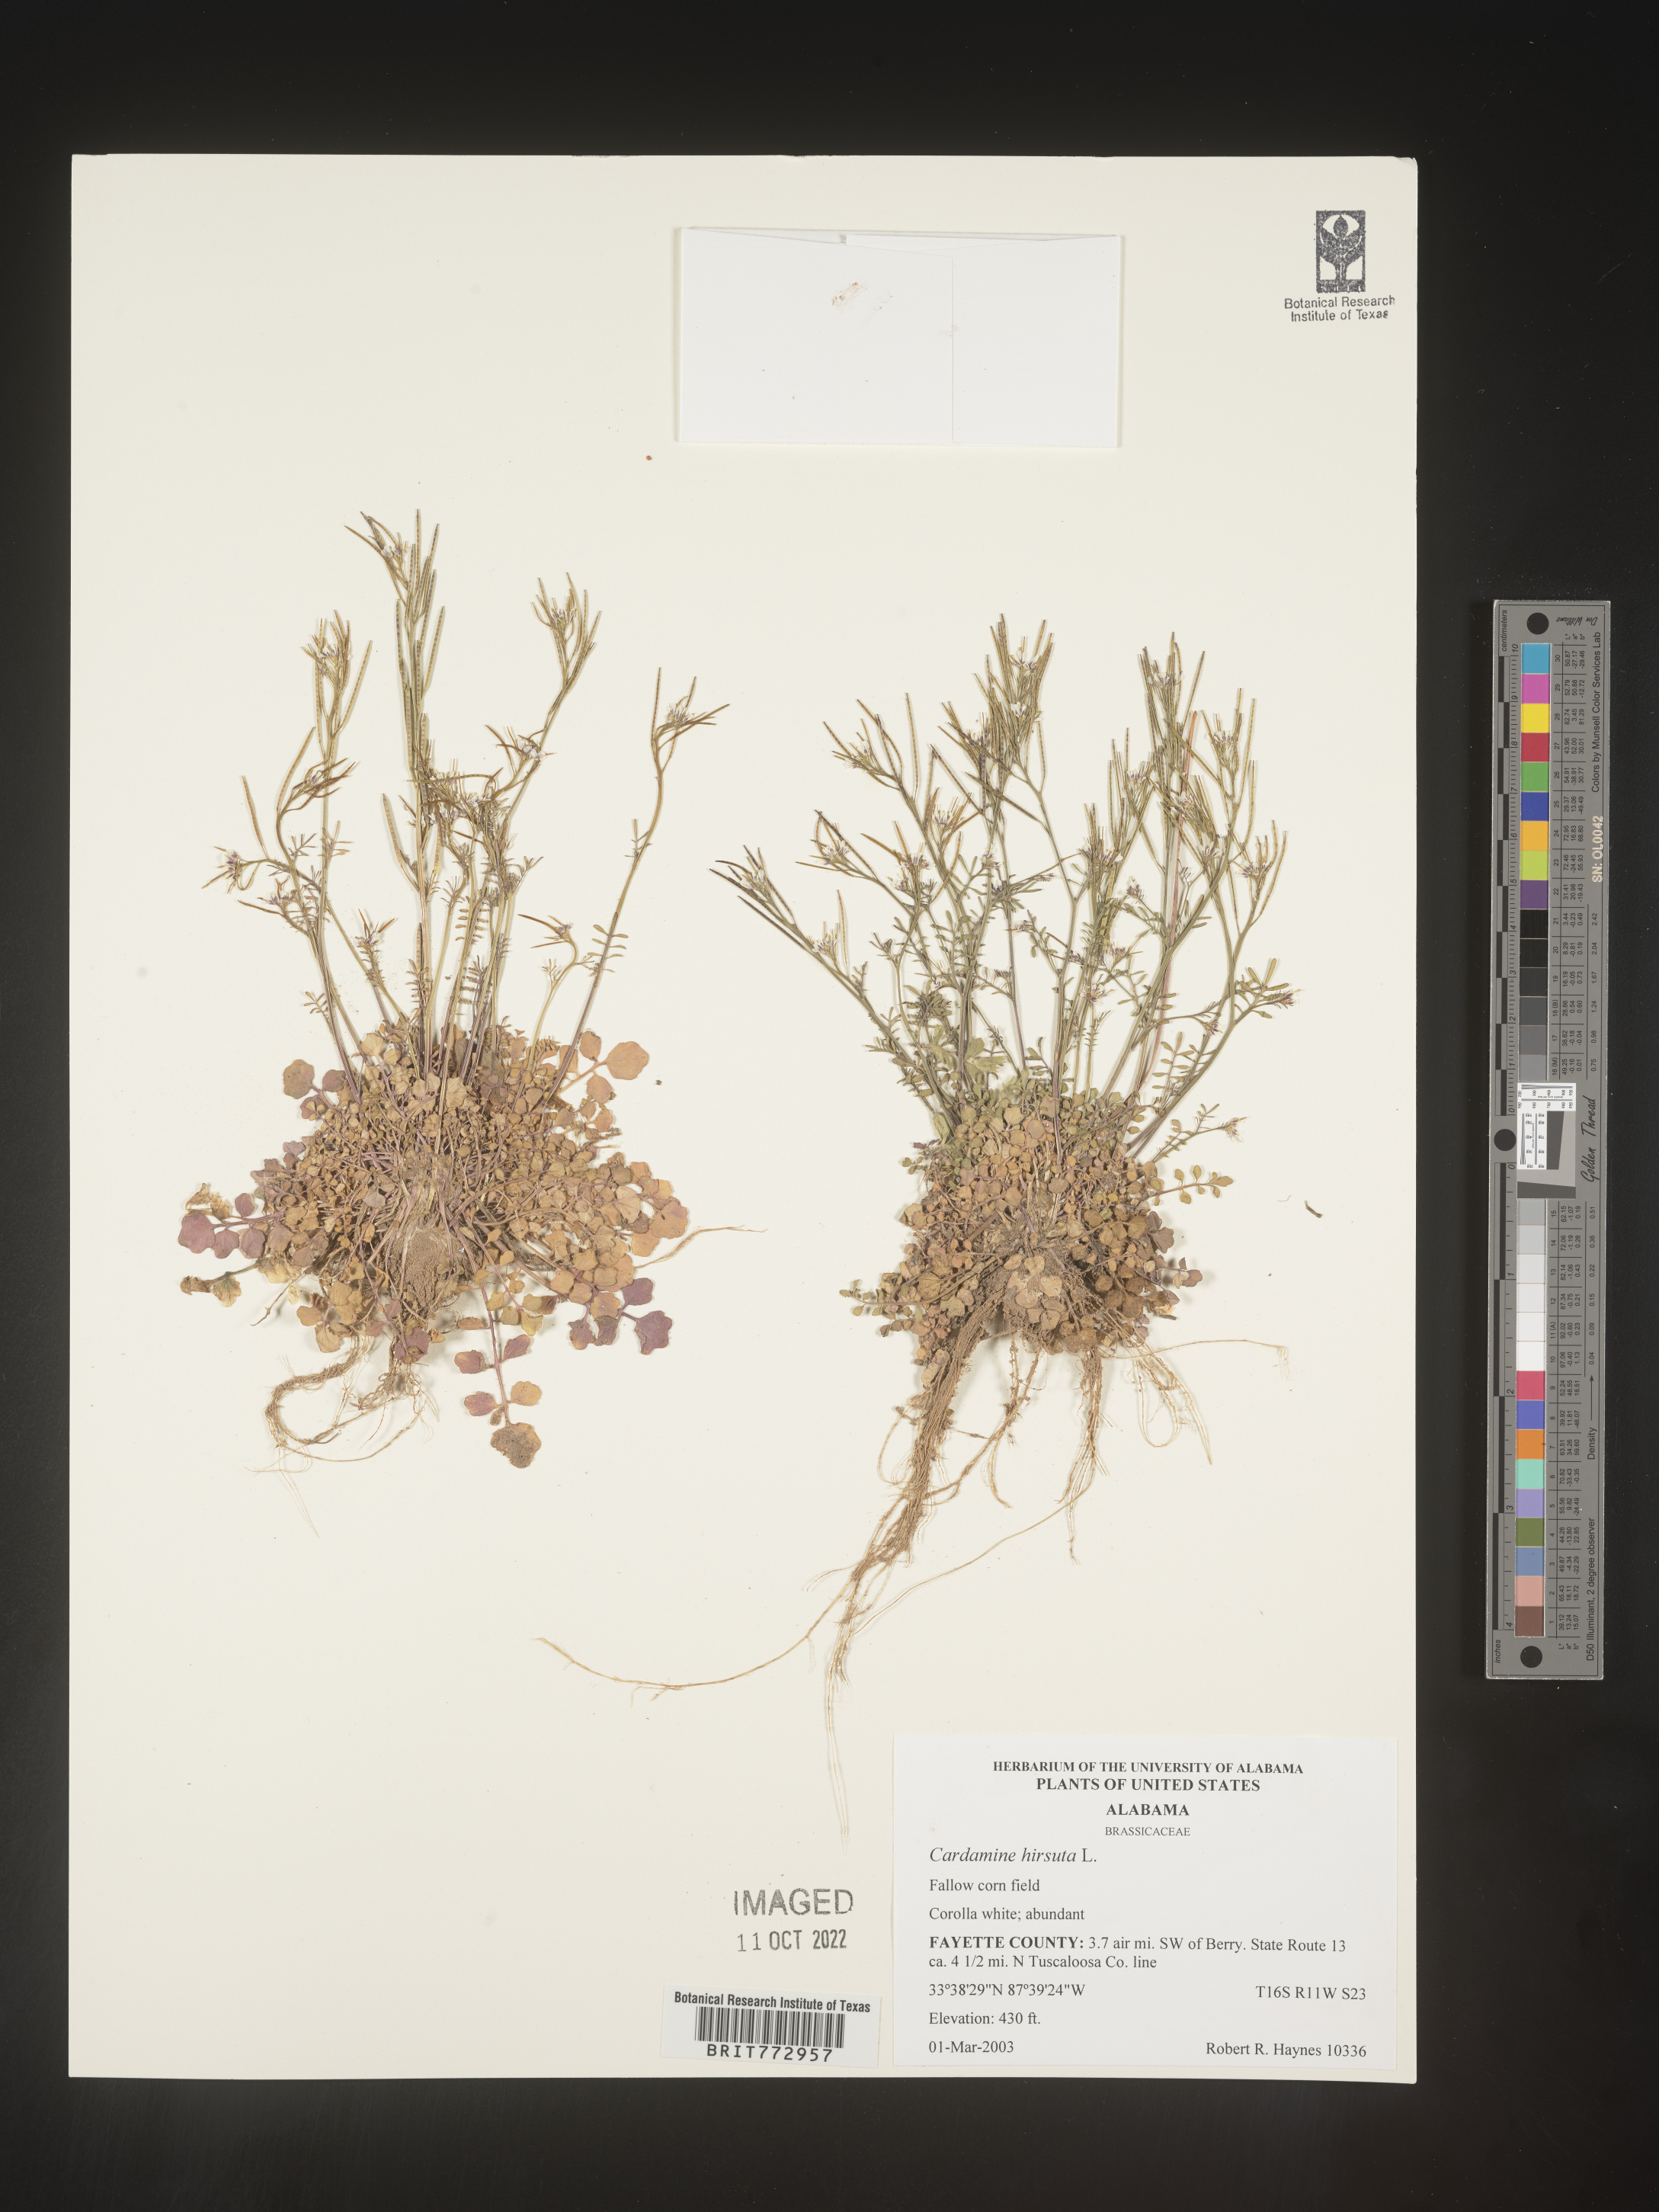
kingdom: Plantae
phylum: Tracheophyta
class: Magnoliopsida
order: Brassicales
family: Brassicaceae
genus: Cardamine
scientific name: Cardamine hirsuta
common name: Hairy bittercress
